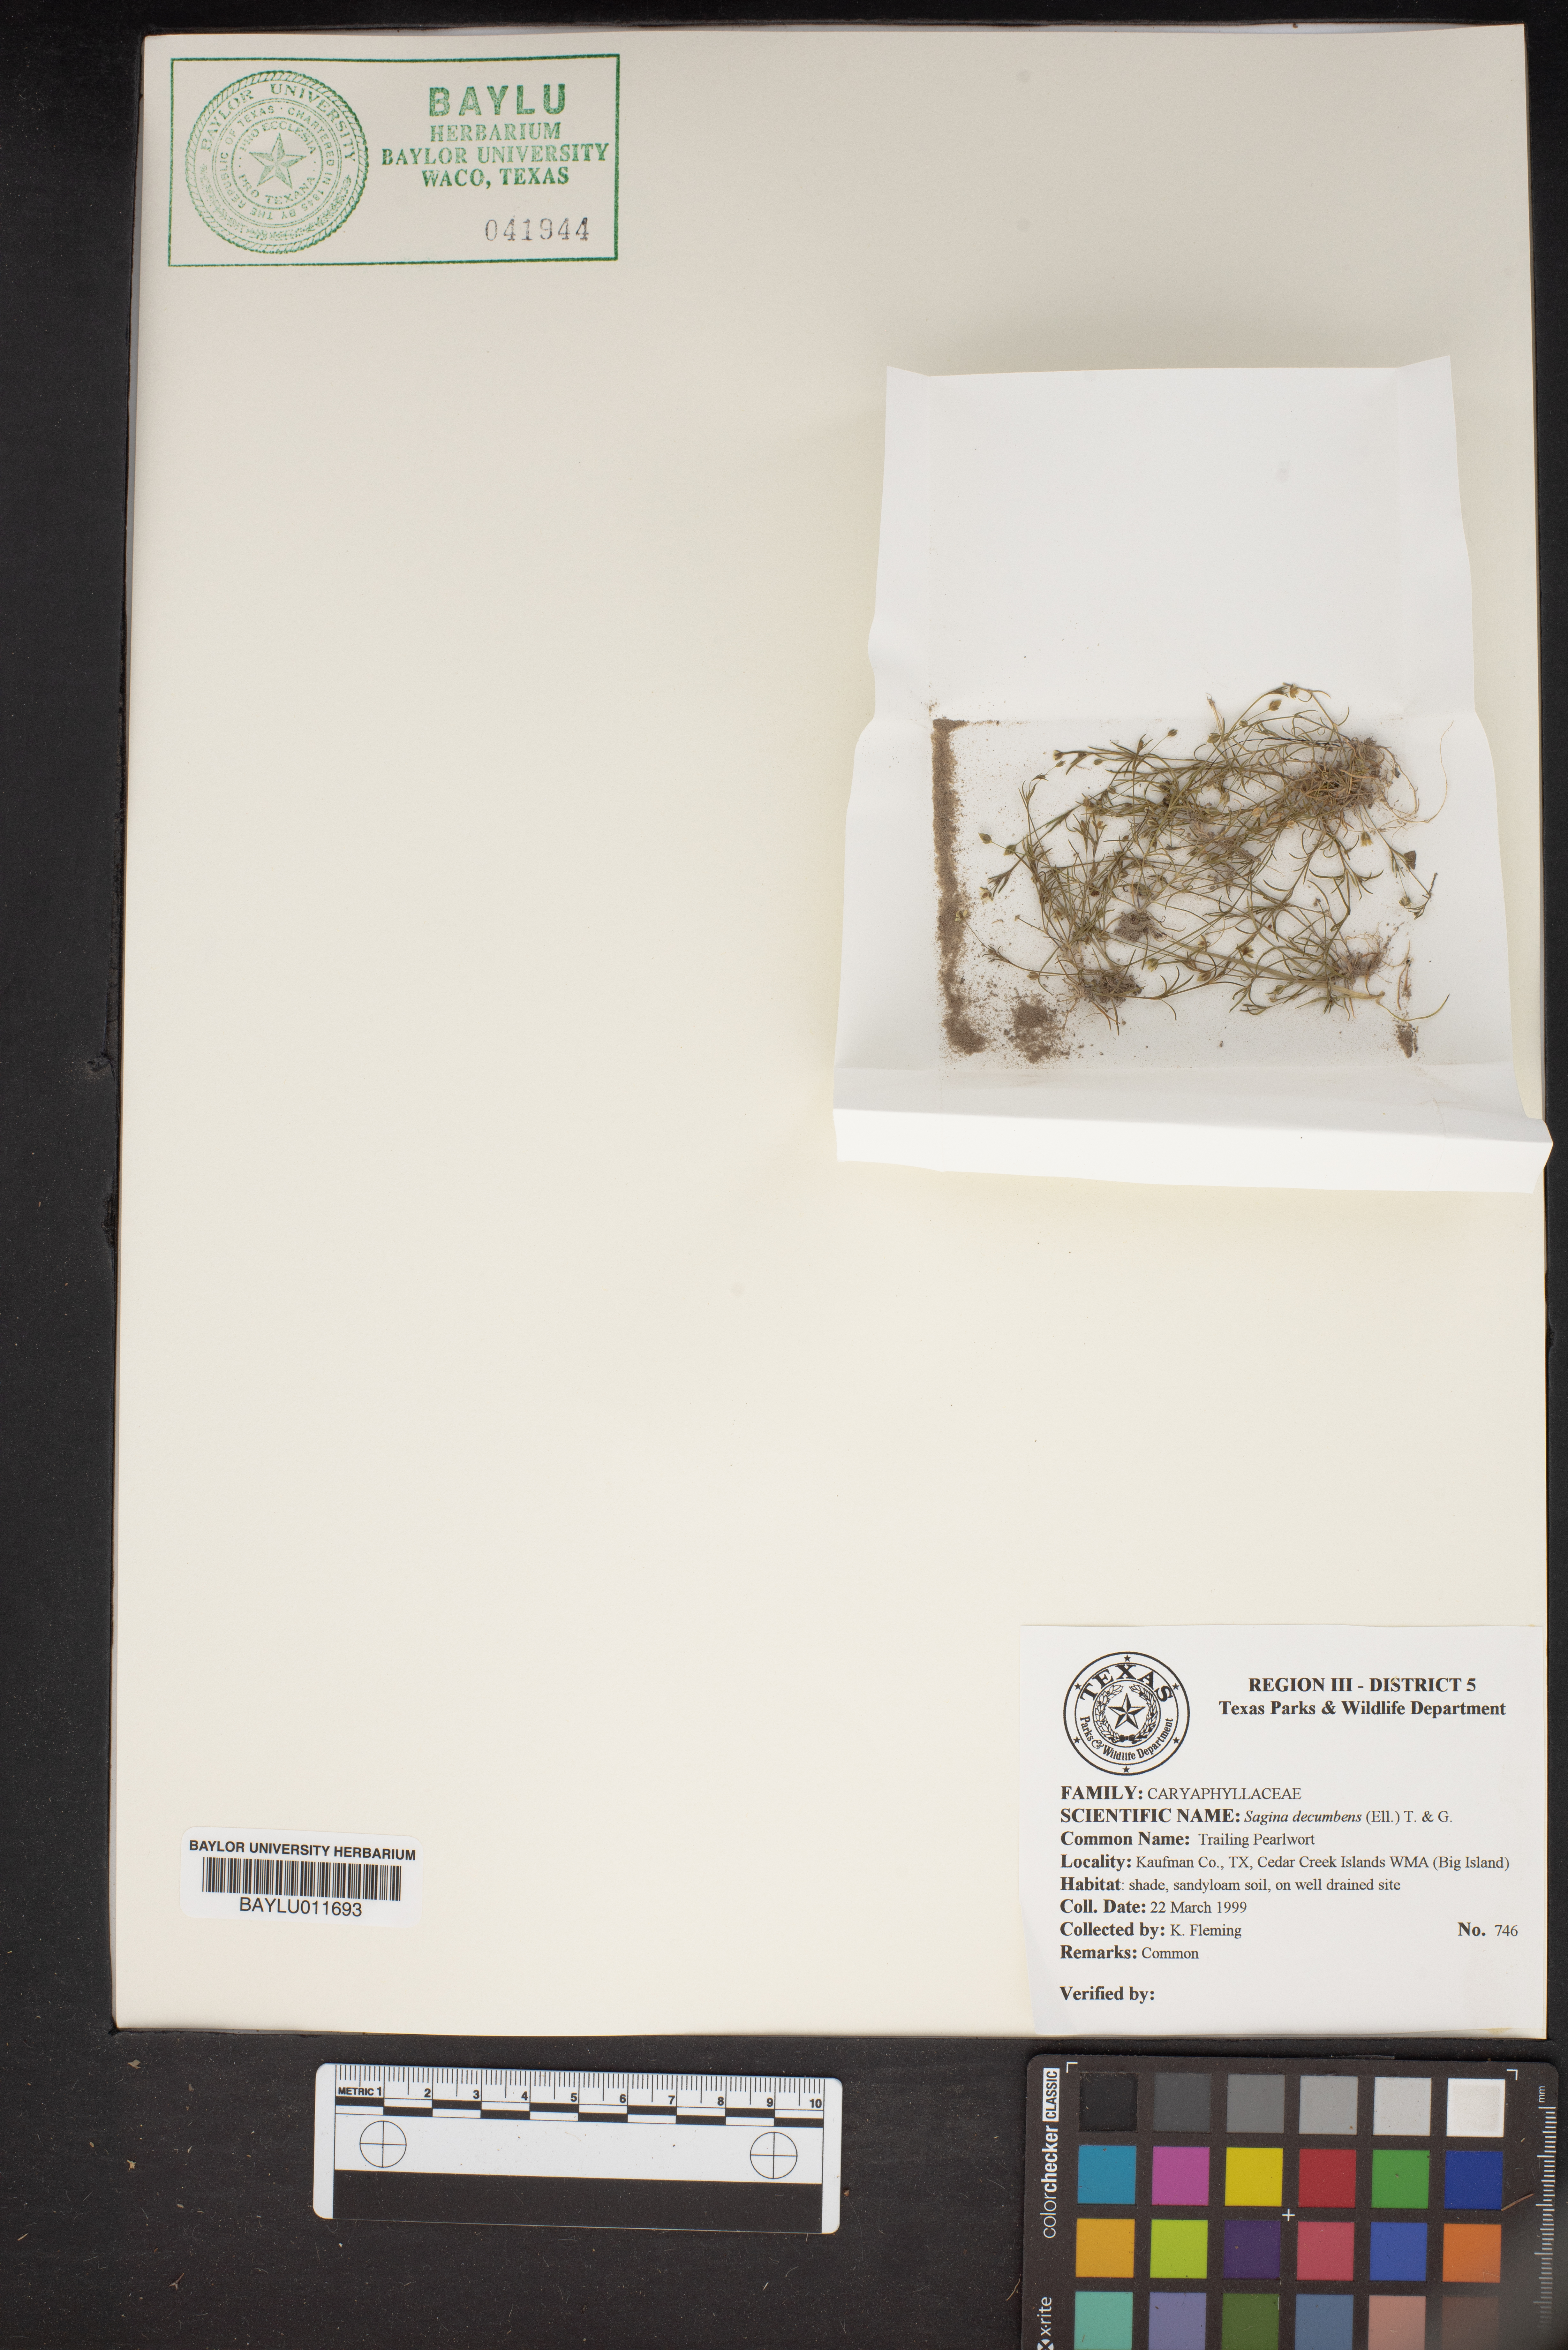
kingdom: Plantae
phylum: Tracheophyta
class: Magnoliopsida
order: Caryophyllales
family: Caryophyllaceae
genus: Sagina
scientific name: Sagina decumbens
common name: Decumbent pearlwort
